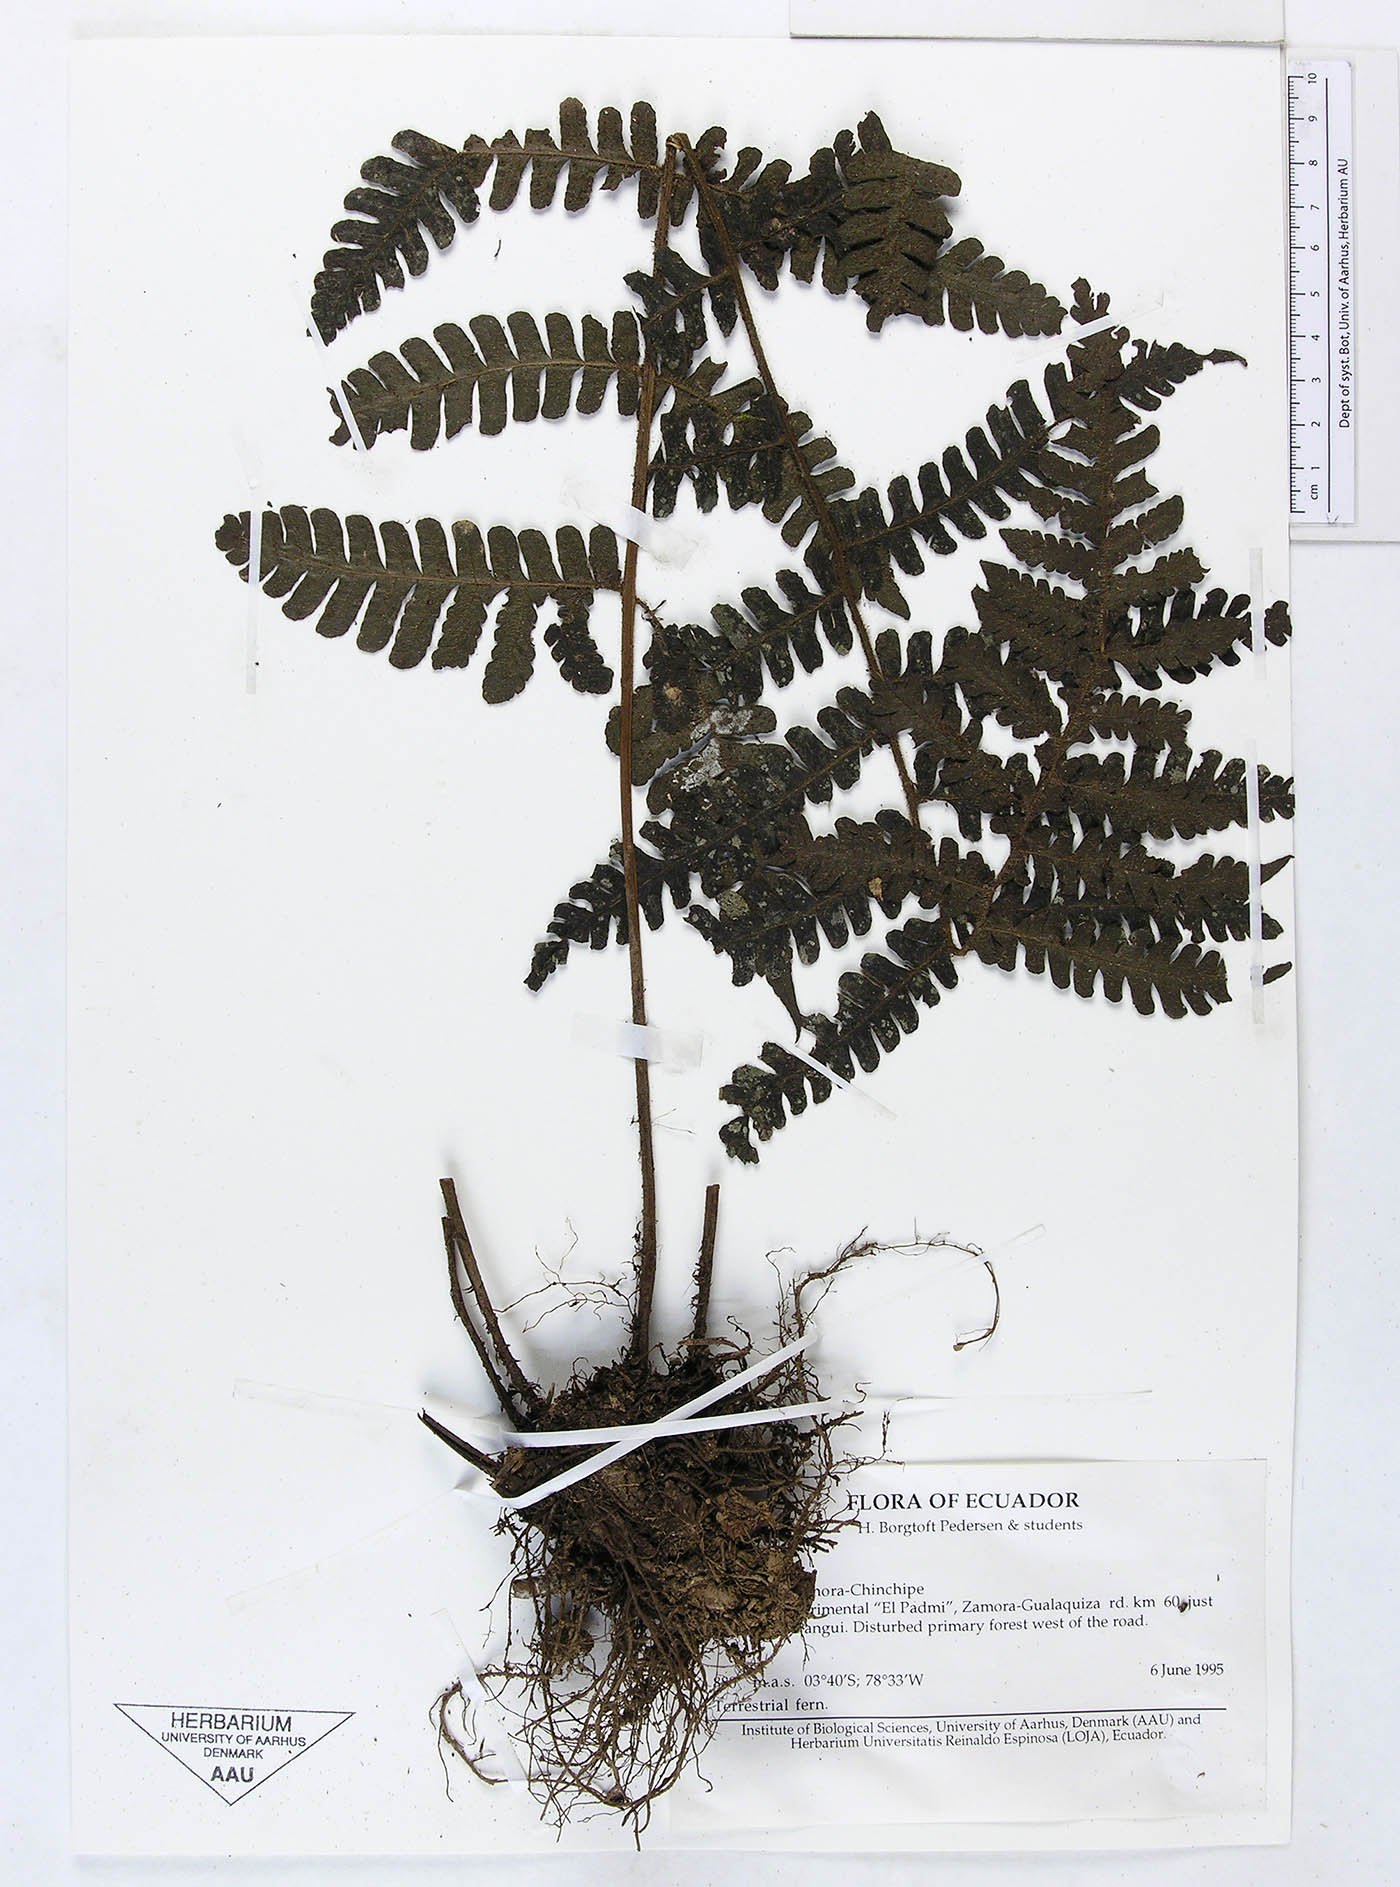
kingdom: Plantae
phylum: Tracheophyta
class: Polypodiopsida
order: Polypodiales
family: Dryopteridaceae
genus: Megalastrum
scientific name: Megalastrum hirsutosetosum
